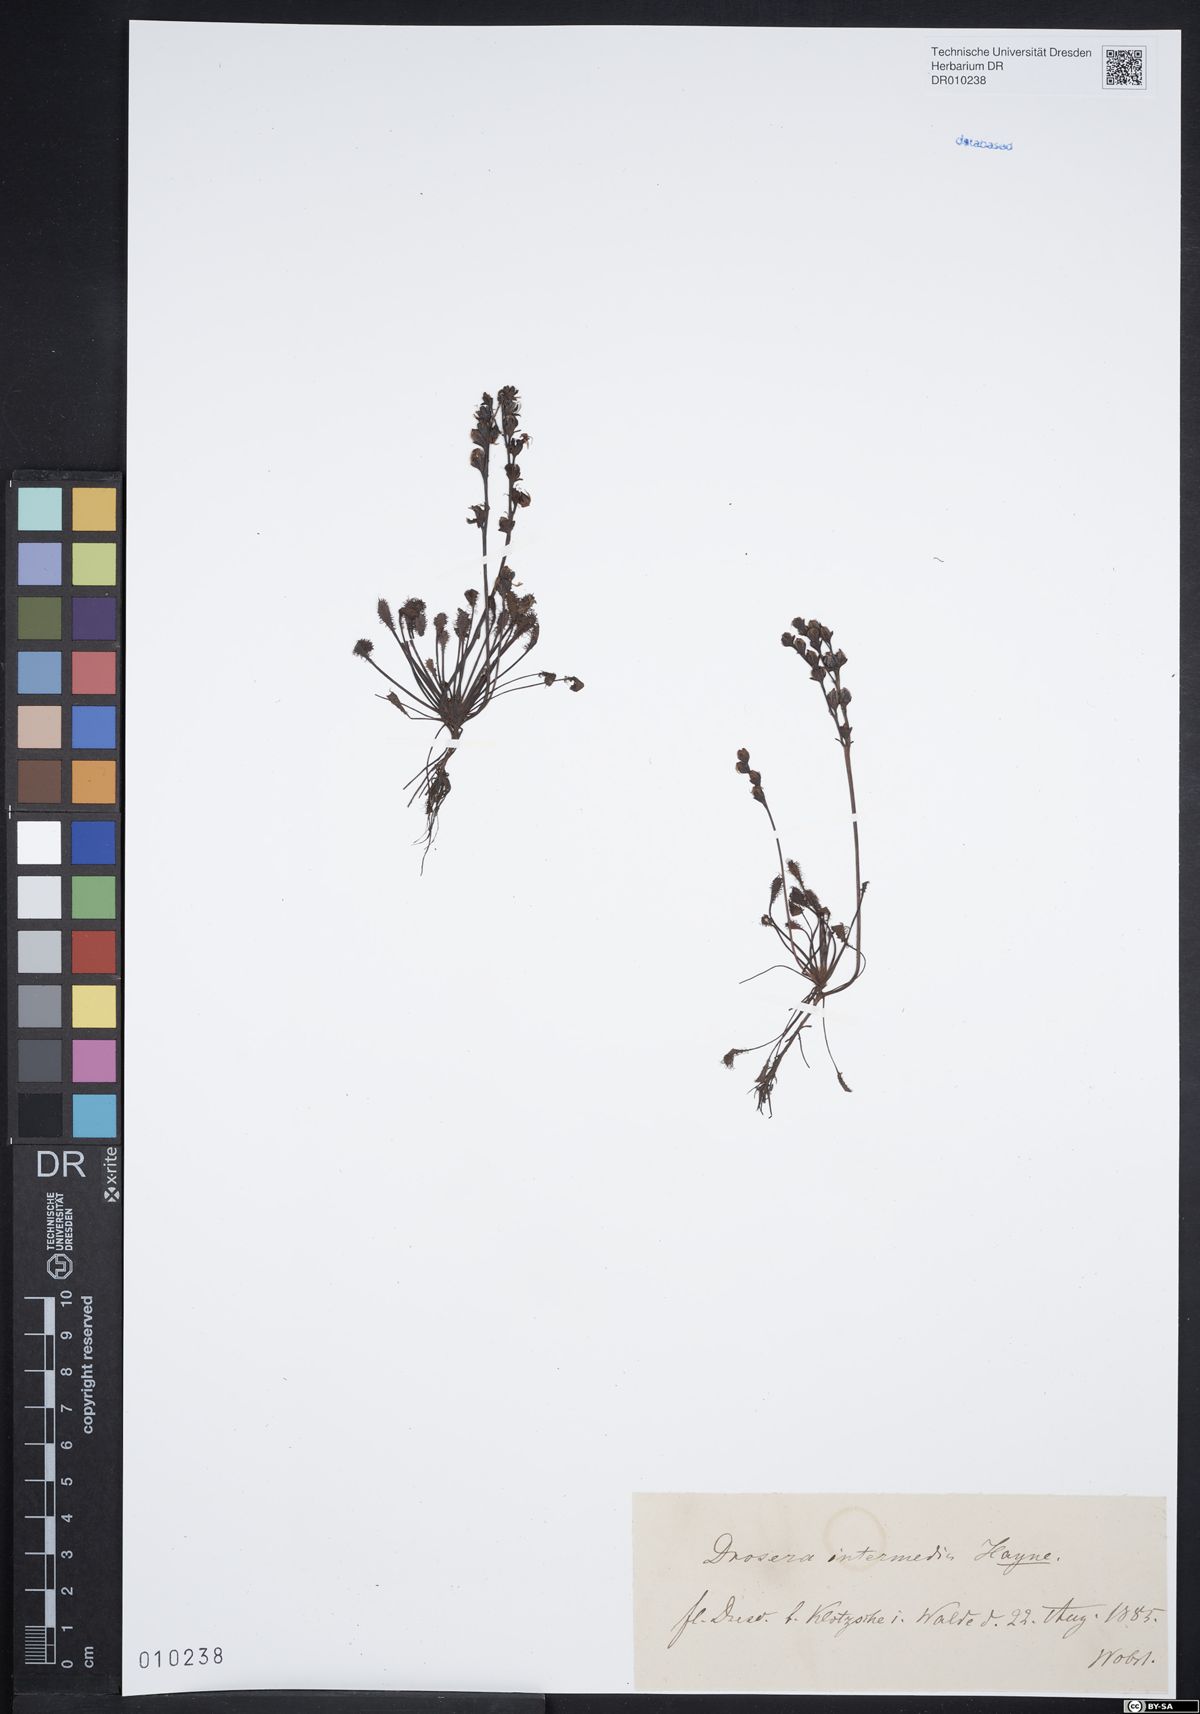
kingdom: Plantae
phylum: Tracheophyta
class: Magnoliopsida
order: Caryophyllales
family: Droseraceae
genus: Drosera
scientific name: Drosera intermedia
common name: Oblong-leaved sundew
